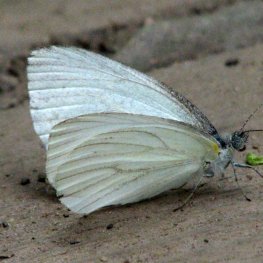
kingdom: Animalia
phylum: Arthropoda
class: Insecta
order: Lepidoptera
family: Pieridae
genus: Pieris
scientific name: Pieris oleracea
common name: Mustard White
